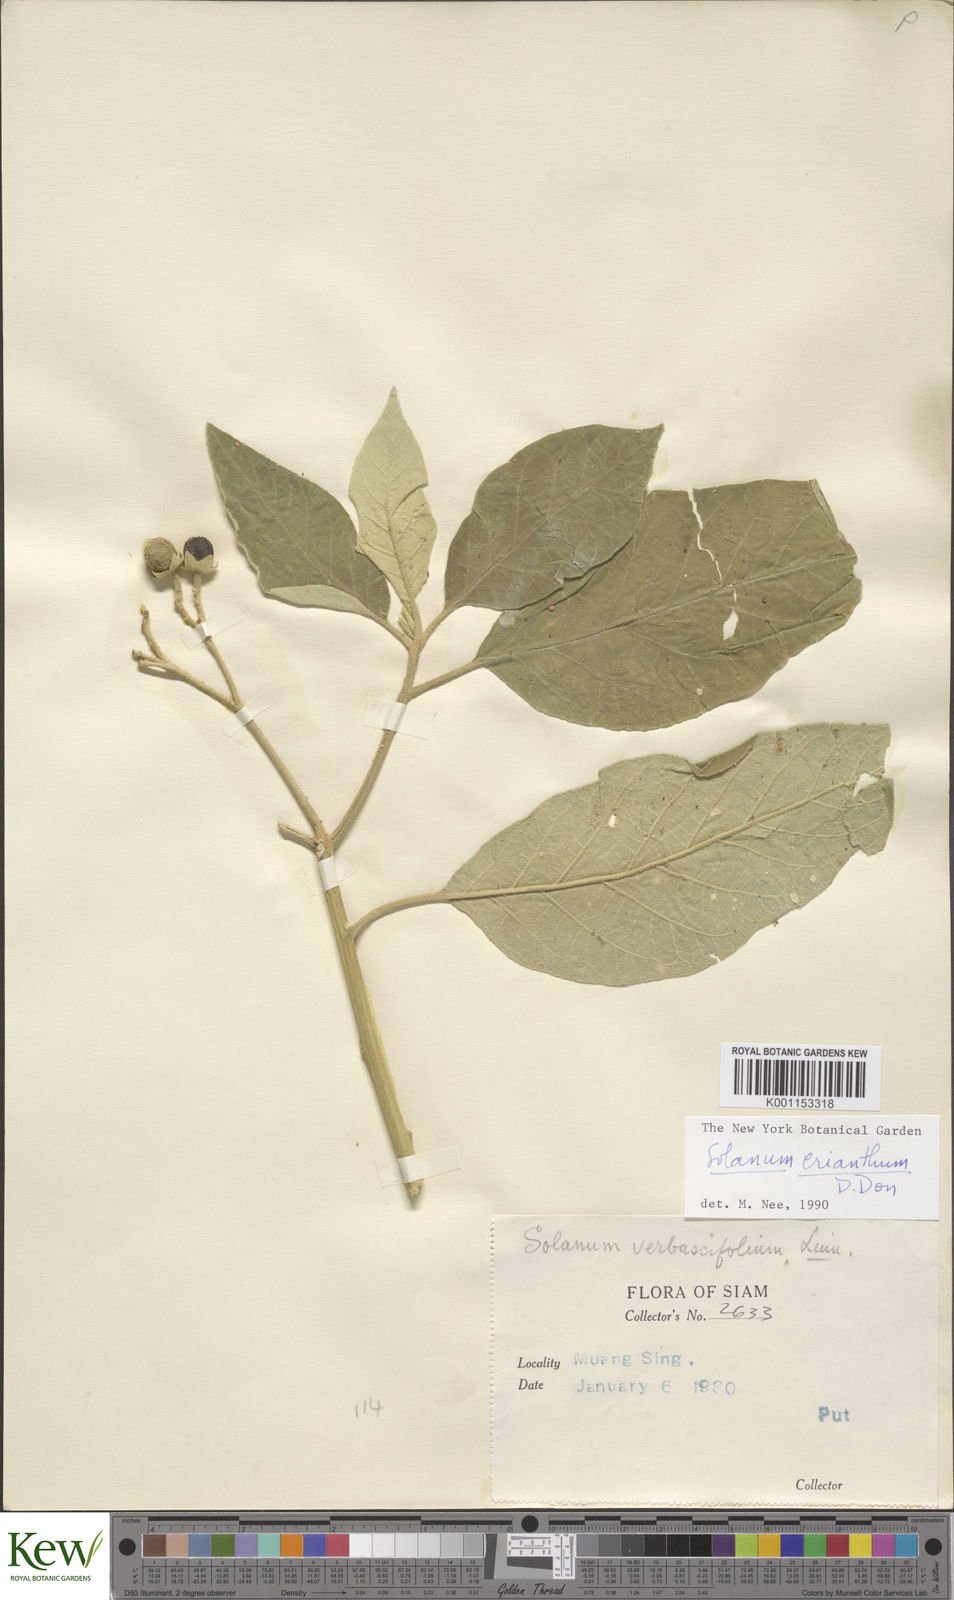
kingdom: Plantae
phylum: Tracheophyta
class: Magnoliopsida
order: Solanales
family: Solanaceae
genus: Solanum
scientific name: Solanum erianthum
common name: Tobacco-tree
